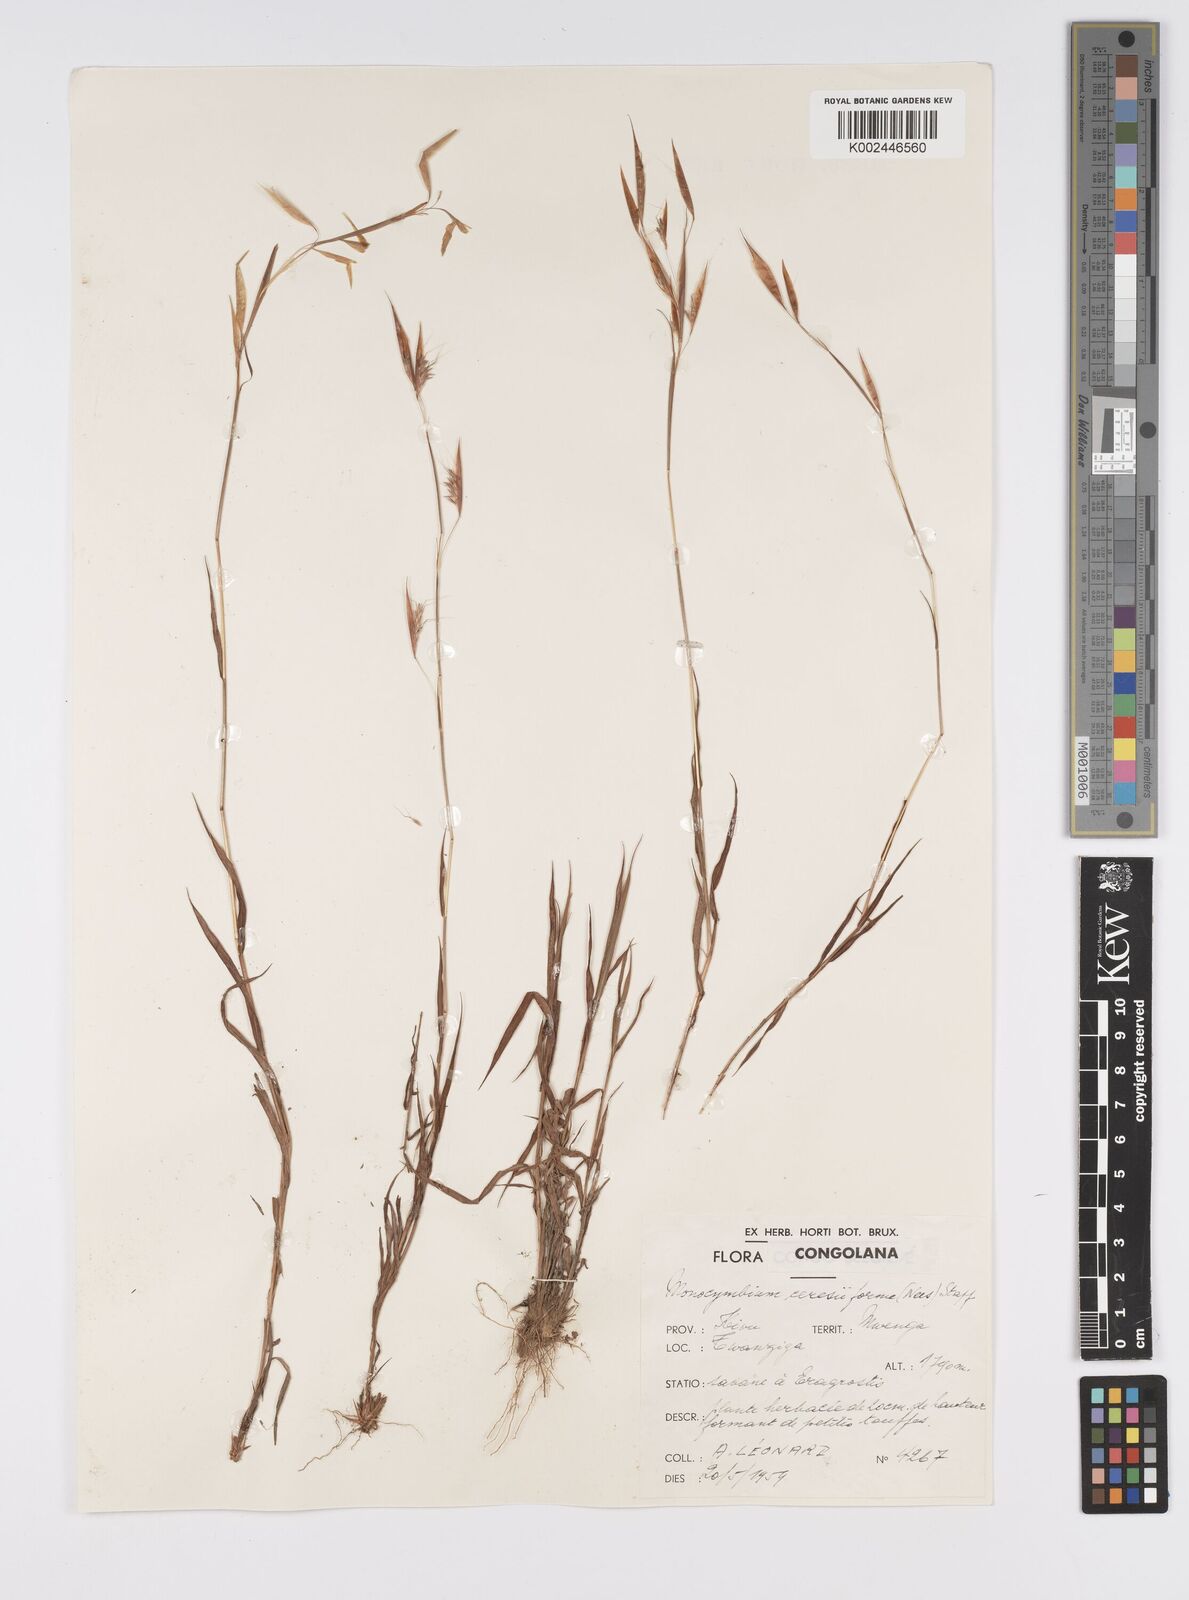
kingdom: Plantae
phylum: Tracheophyta
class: Liliopsida
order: Poales
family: Poaceae
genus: Monocymbium
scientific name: Monocymbium ceresiiforme
